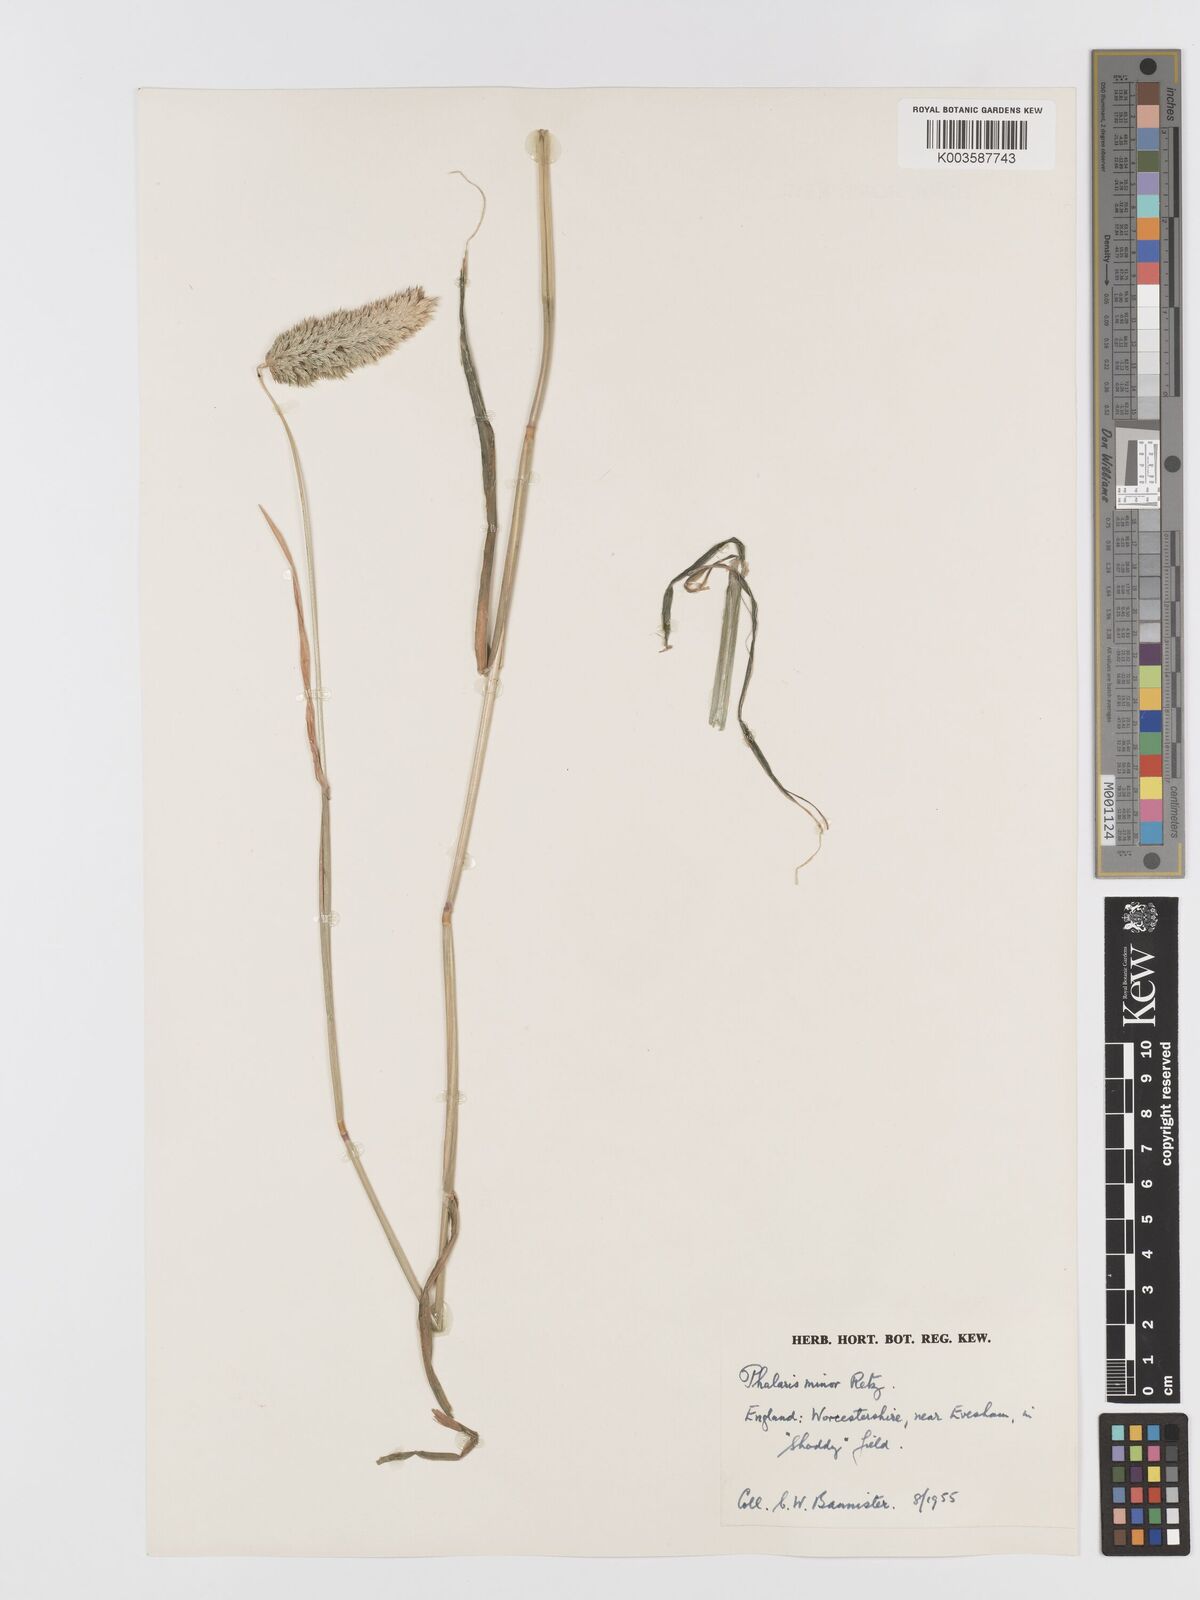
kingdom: Plantae
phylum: Tracheophyta
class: Liliopsida
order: Poales
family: Poaceae
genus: Phalaris
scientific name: Phalaris minor
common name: Littleseed canarygrass
